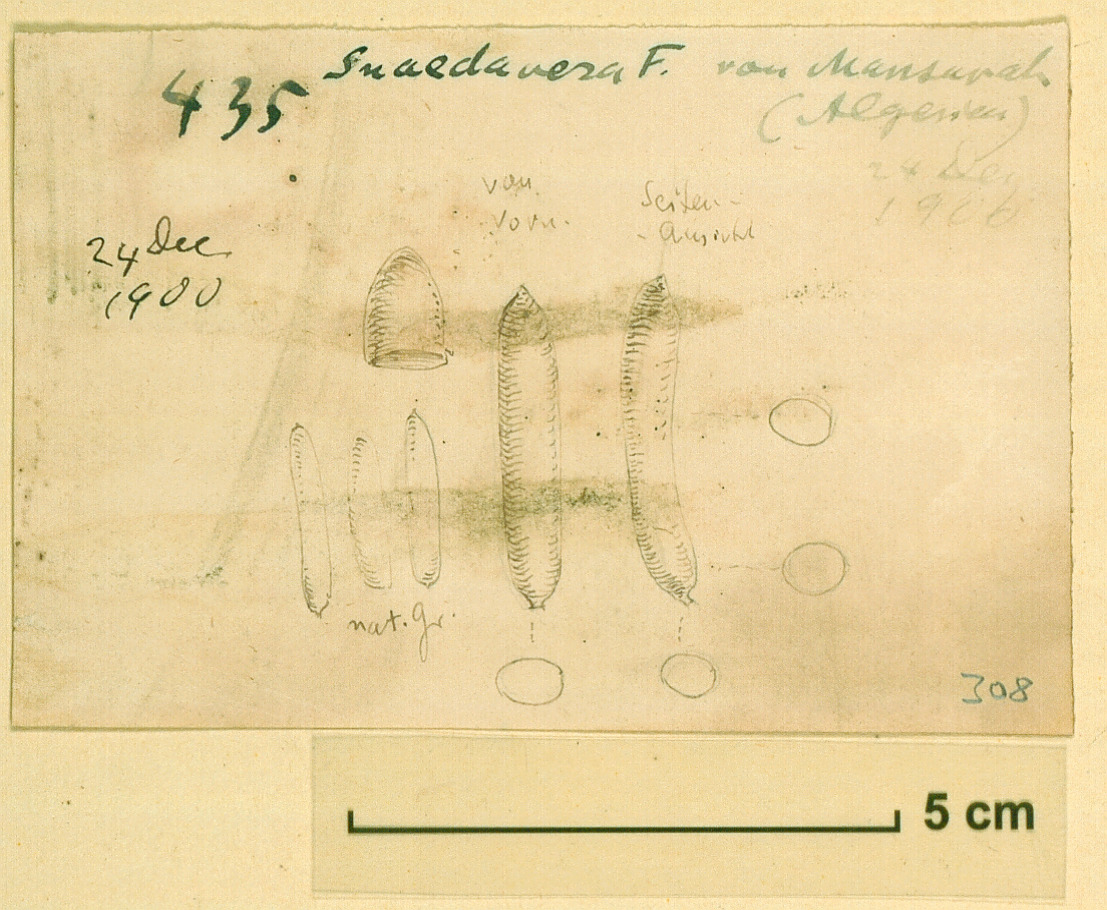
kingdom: Plantae
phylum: Tracheophyta
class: Magnoliopsida
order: Caryophyllales
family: Amaranthaceae
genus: Suaeda
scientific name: Suaeda vera
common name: Shrubby sea-blite
